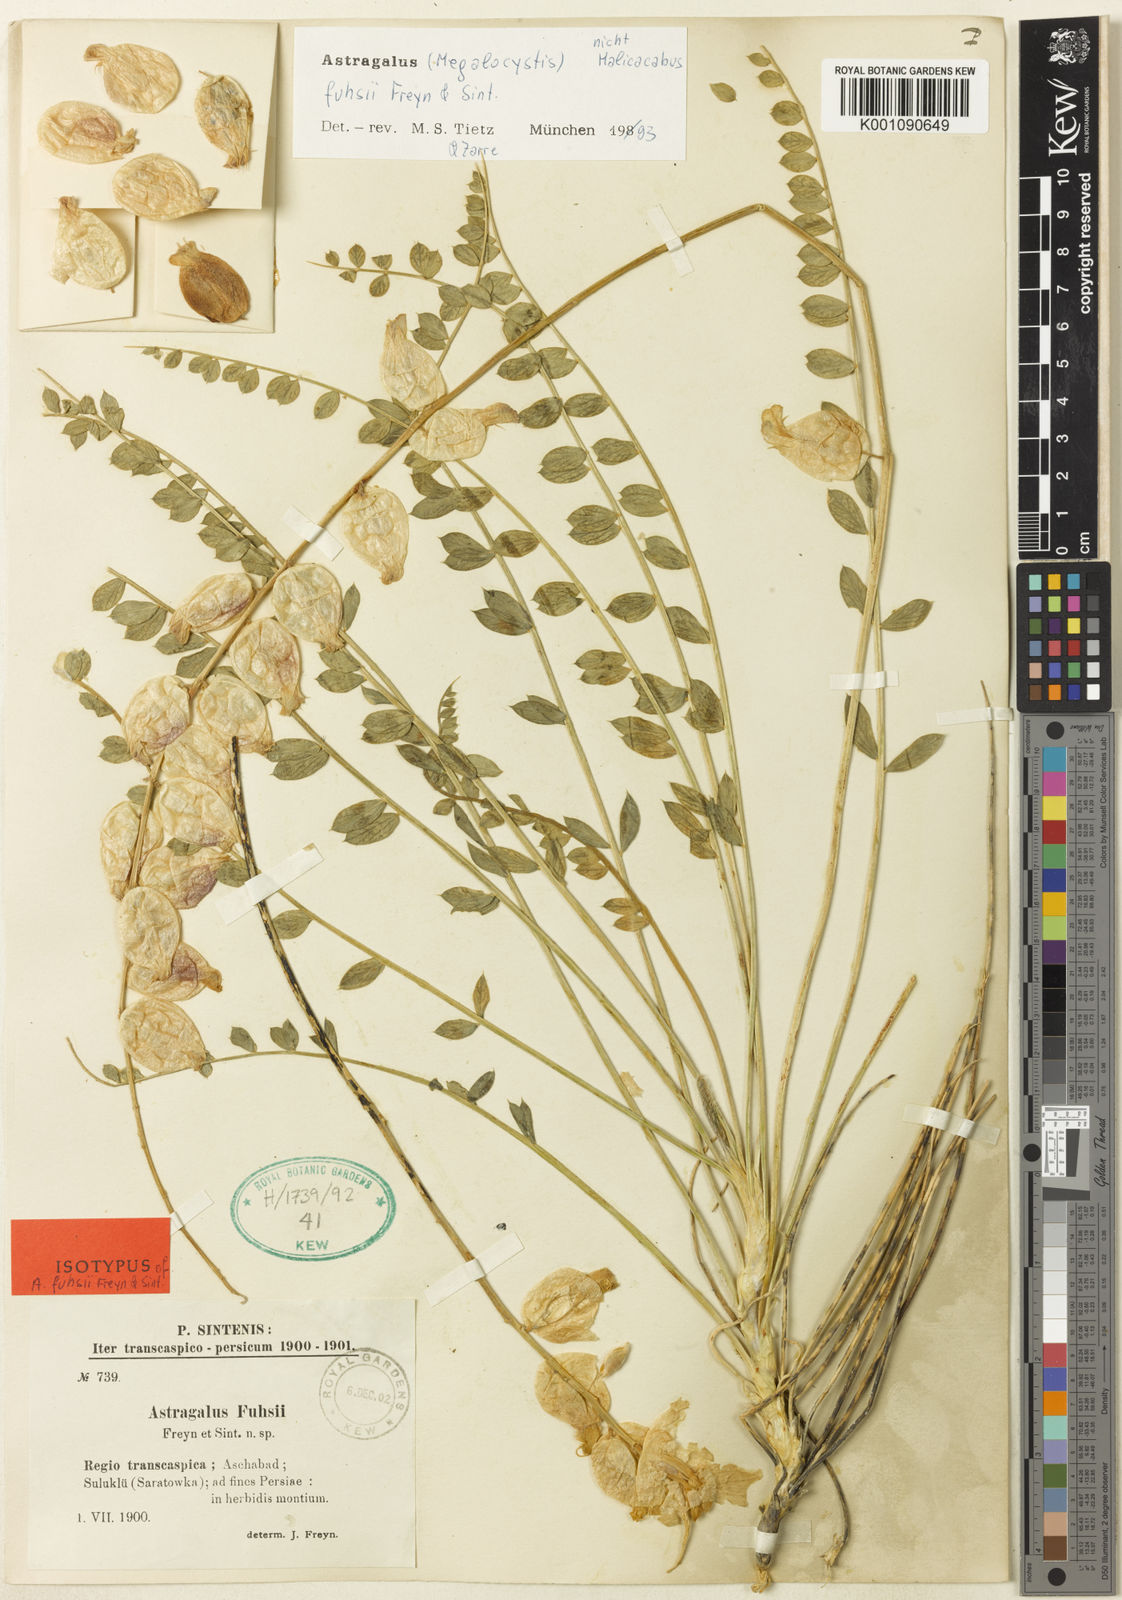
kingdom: Plantae
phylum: Tracheophyta
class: Magnoliopsida
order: Fabales
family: Fabaceae
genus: Astragalus
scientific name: Astragalus
